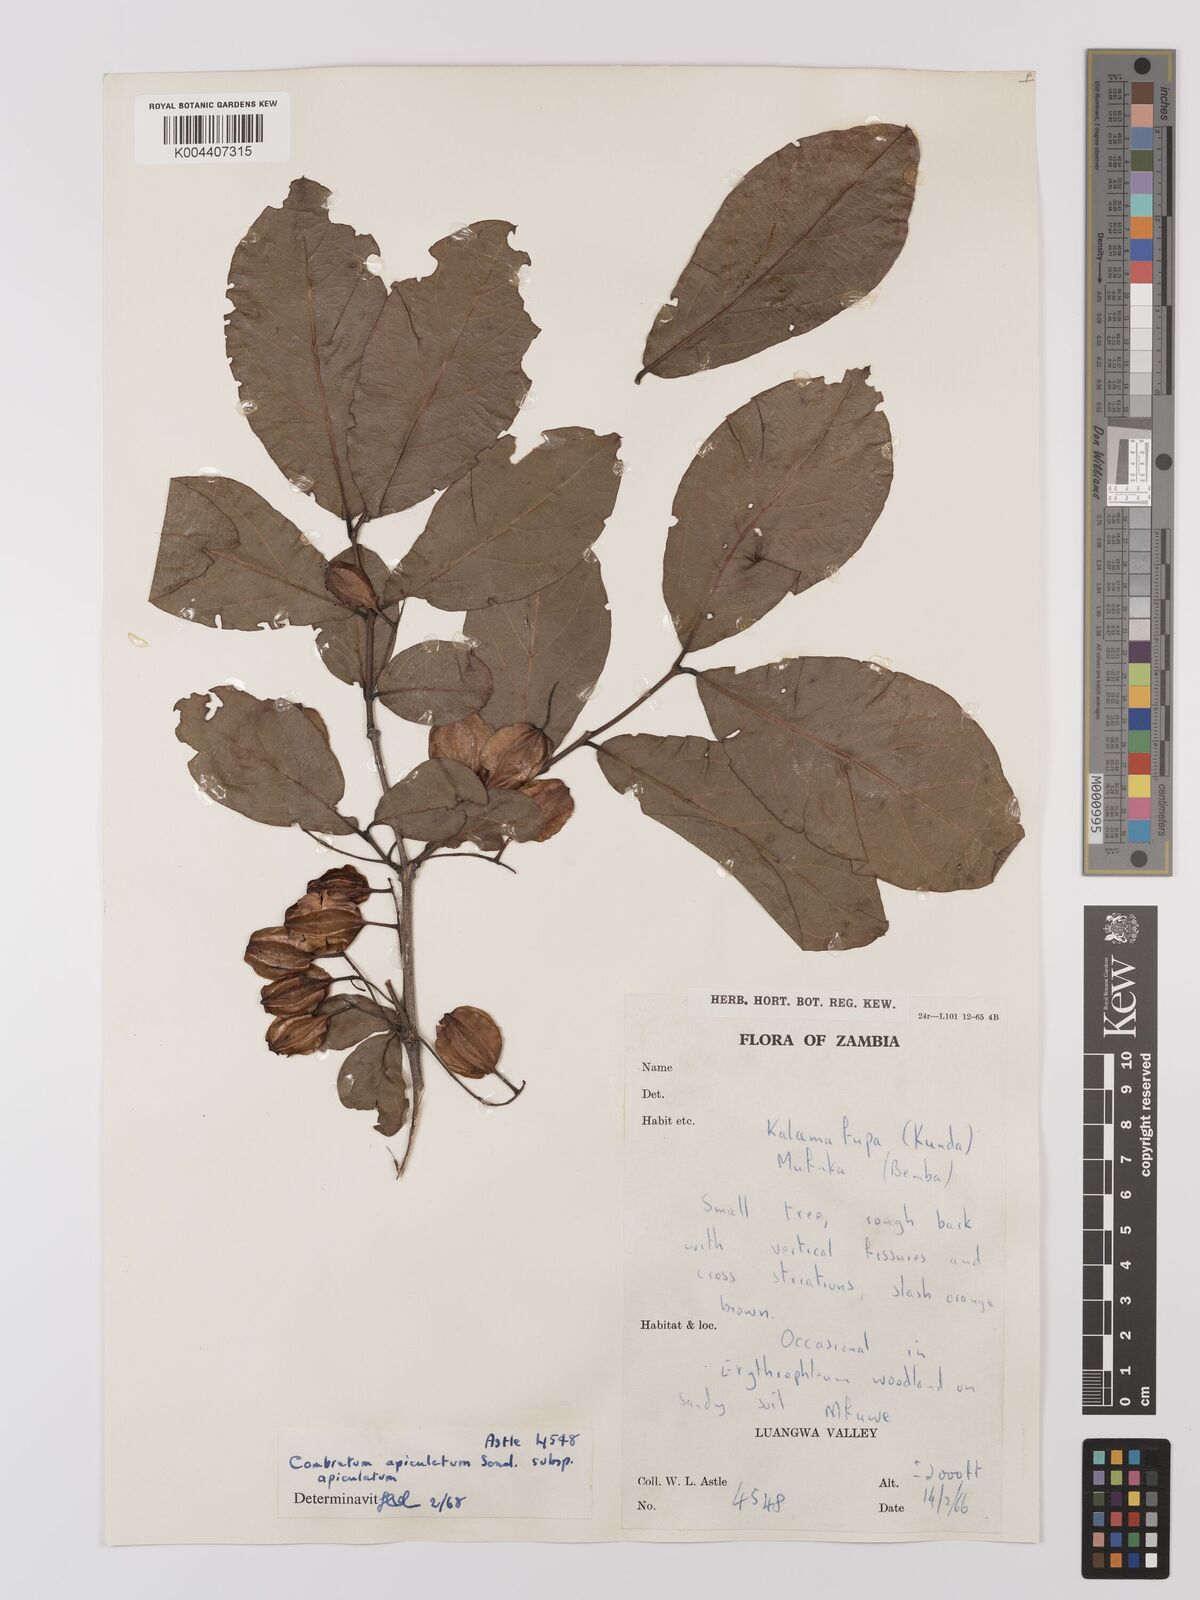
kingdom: Plantae
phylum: Tracheophyta
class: Magnoliopsida
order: Myrtales
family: Combretaceae
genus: Combretum
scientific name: Combretum apiculatum
